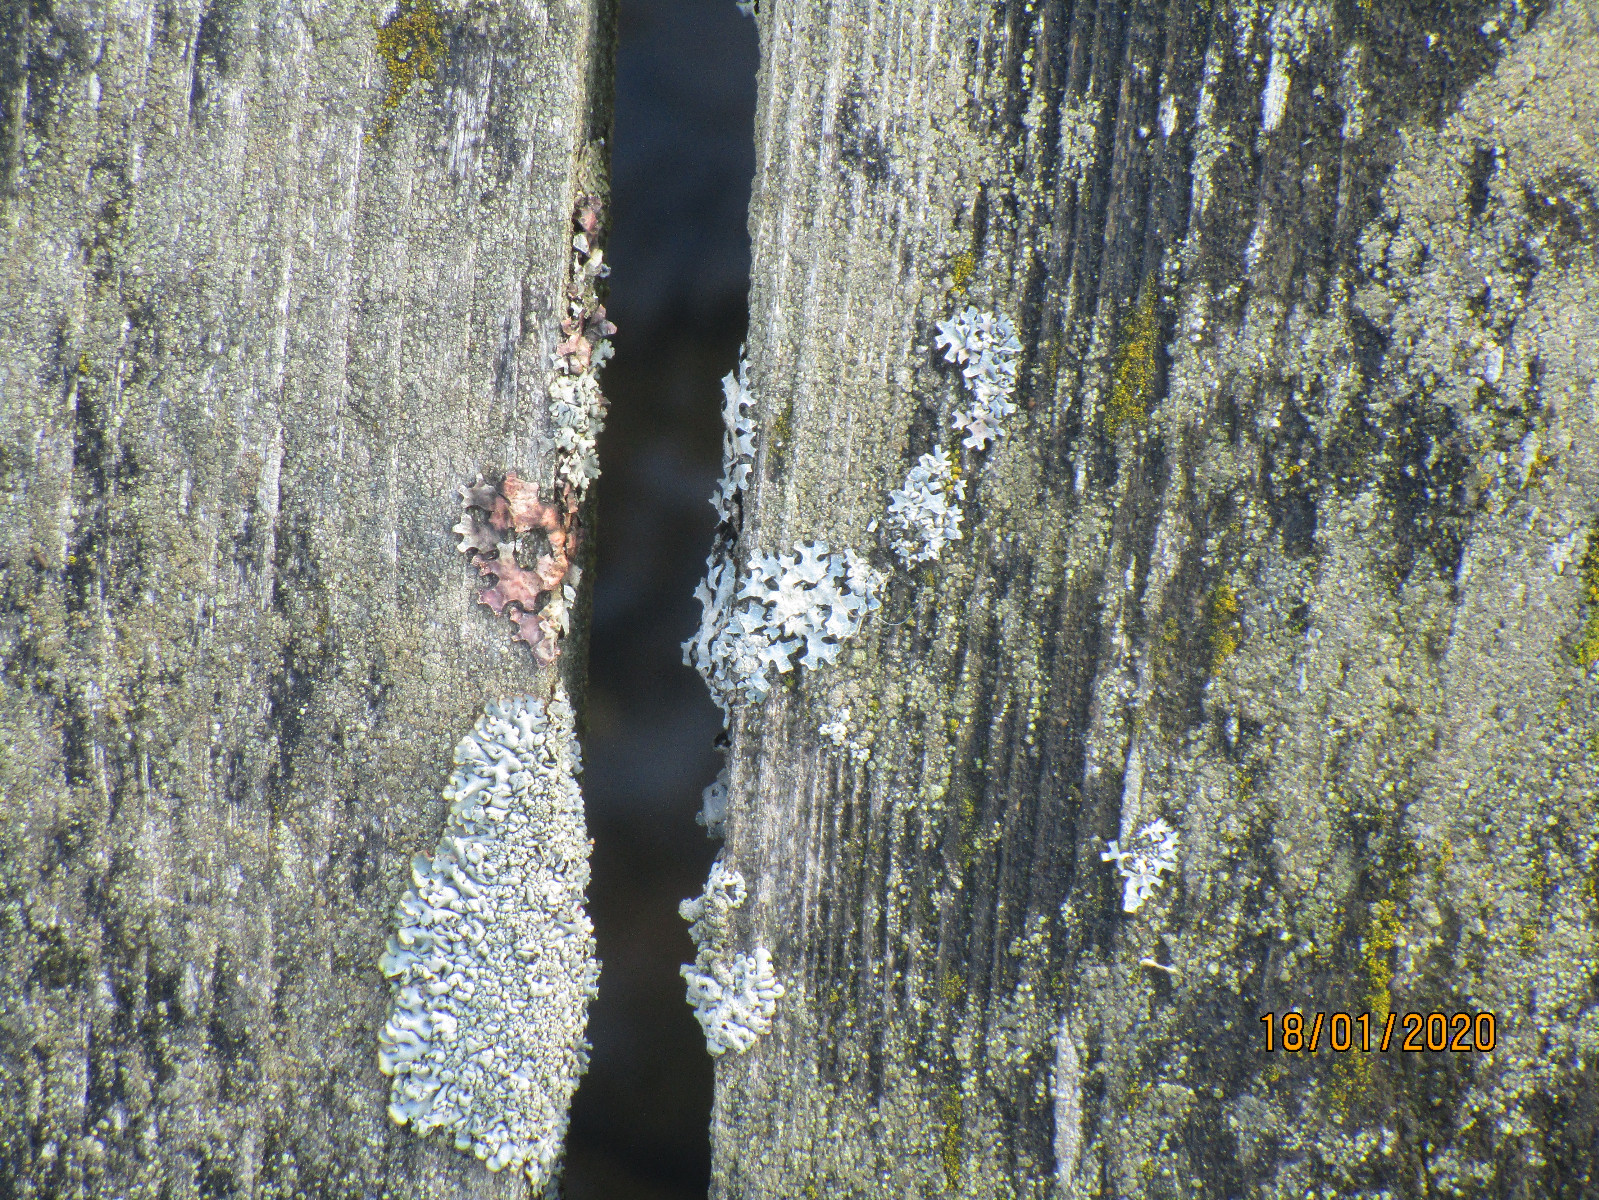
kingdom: Fungi
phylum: Ascomycota
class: Lecanoromycetes
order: Lecanorales
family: Parmeliaceae
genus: Parmelia
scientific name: Parmelia sulcata
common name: rynket skållav
